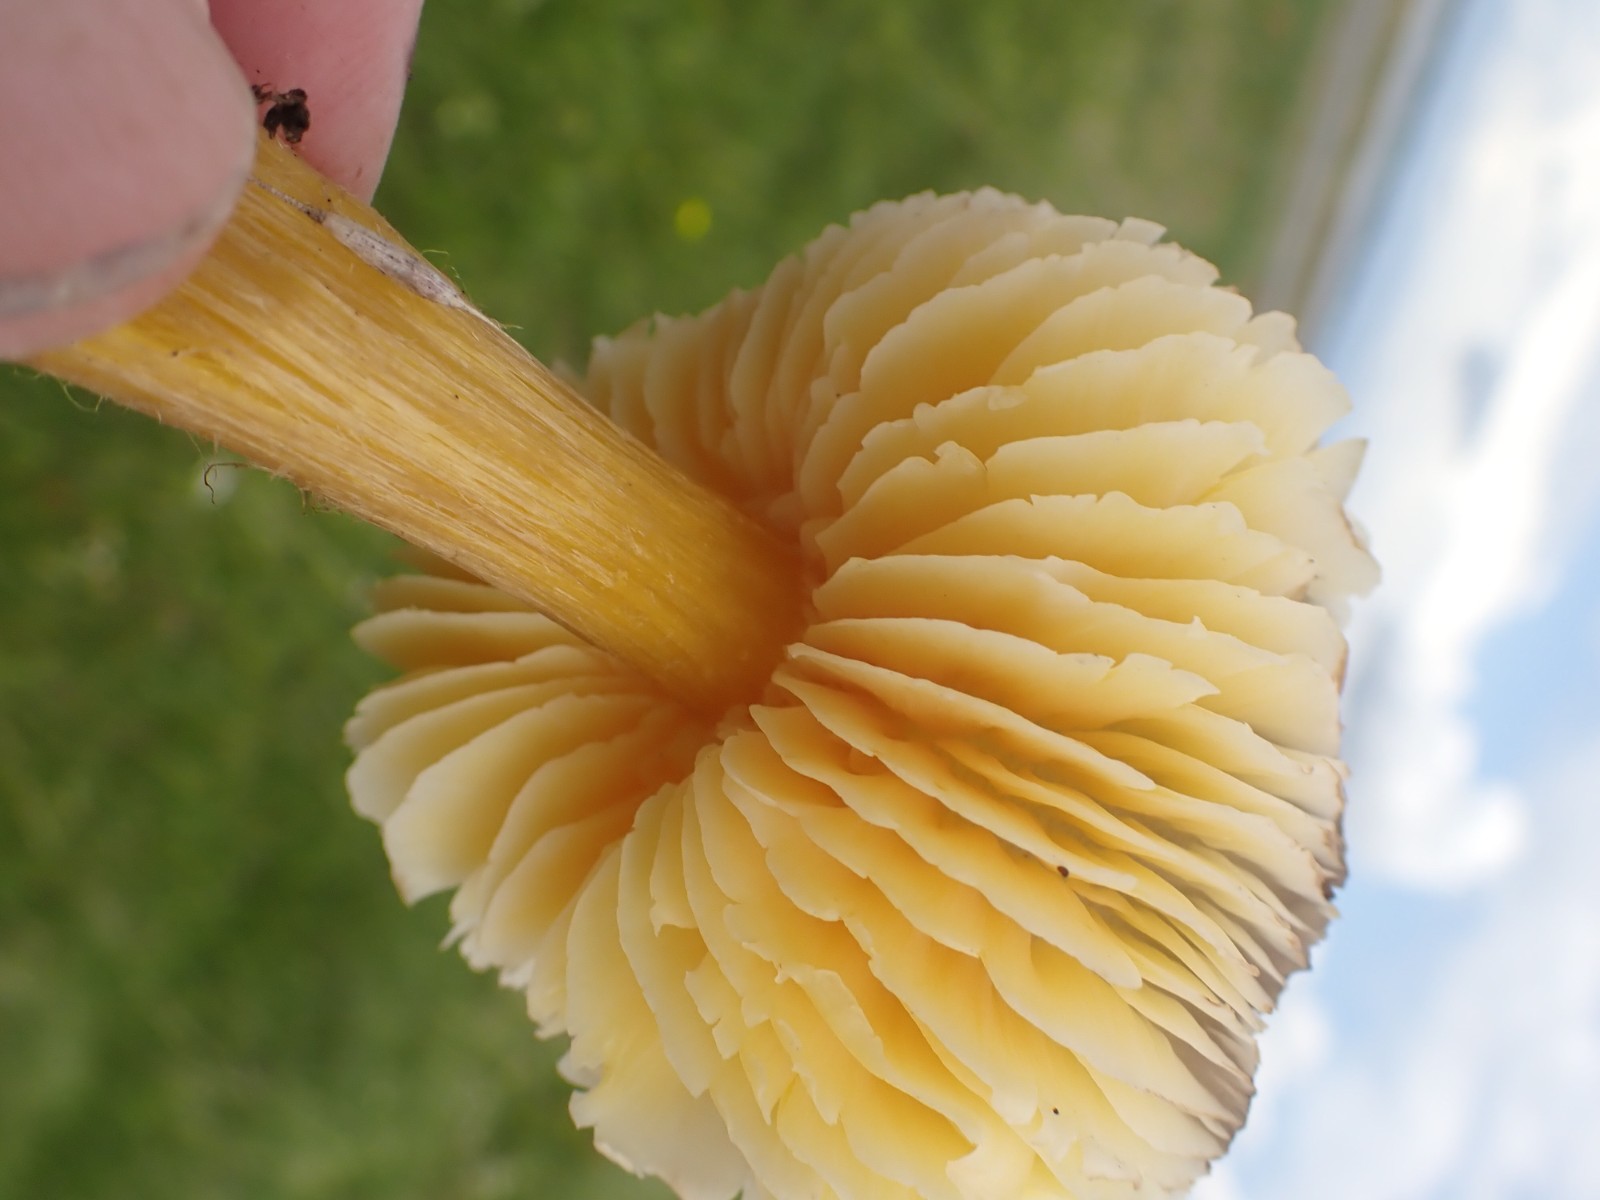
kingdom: Fungi
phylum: Basidiomycota
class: Agaricomycetes
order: Agaricales
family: Hygrophoraceae
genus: Hygrocybe
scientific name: Hygrocybe spadicea
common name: daddelbrun vokshat
